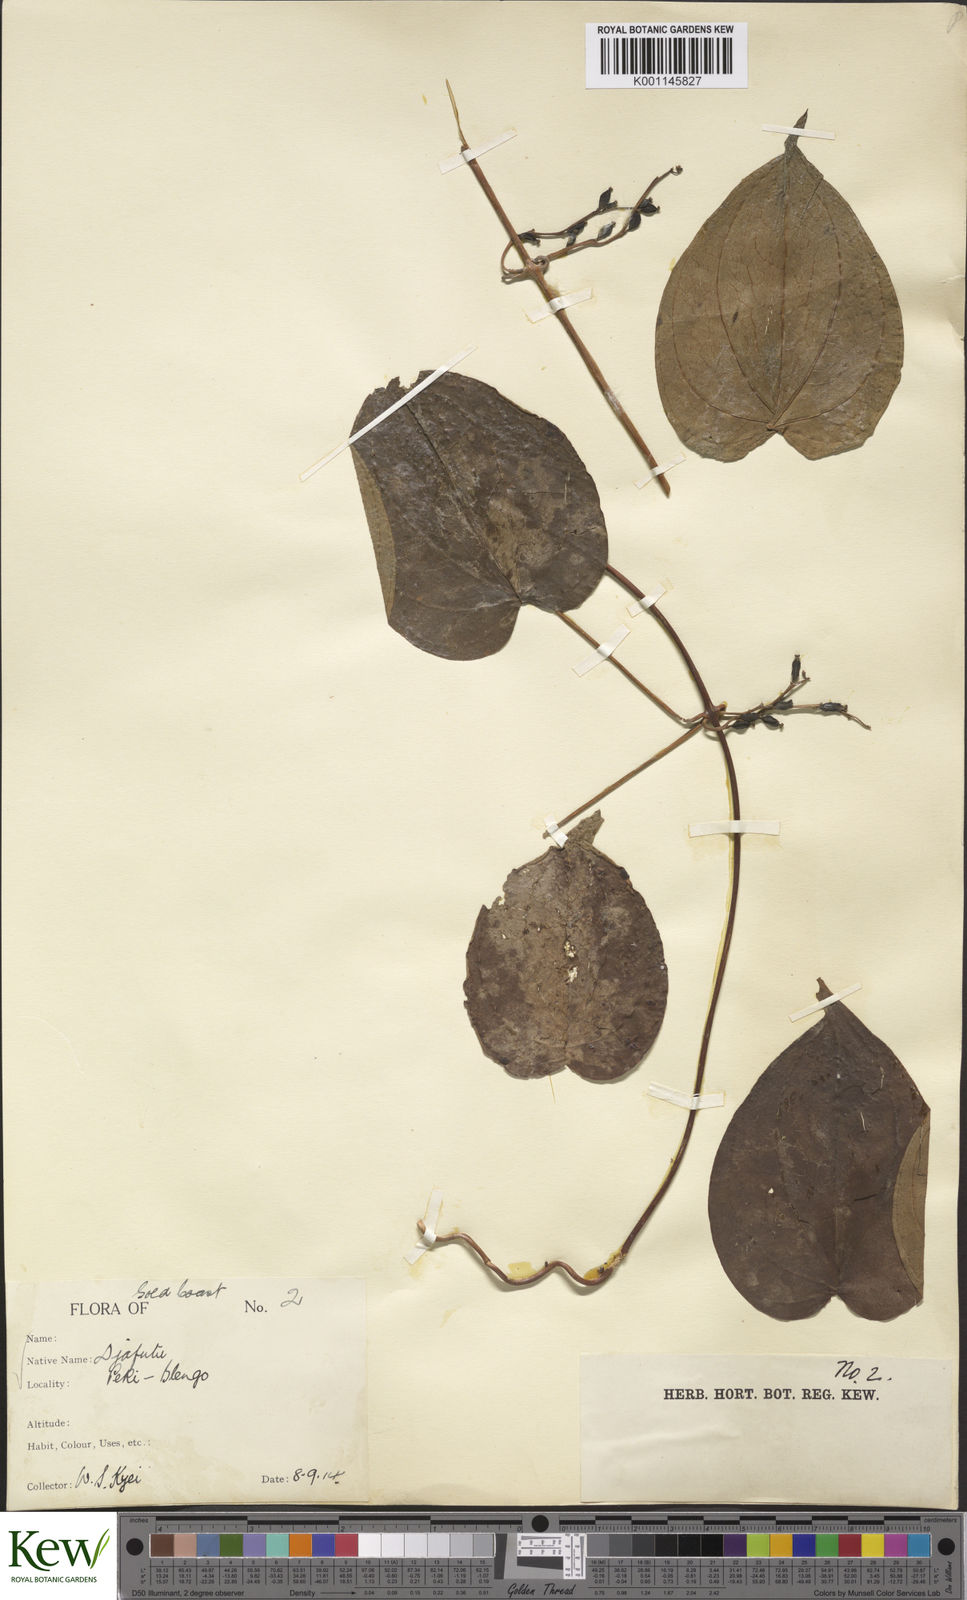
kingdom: Plantae
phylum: Tracheophyta
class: Liliopsida
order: Dioscoreales
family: Dioscoreaceae
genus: Dioscorea
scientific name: Dioscorea cayenensis
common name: Attoto yam
